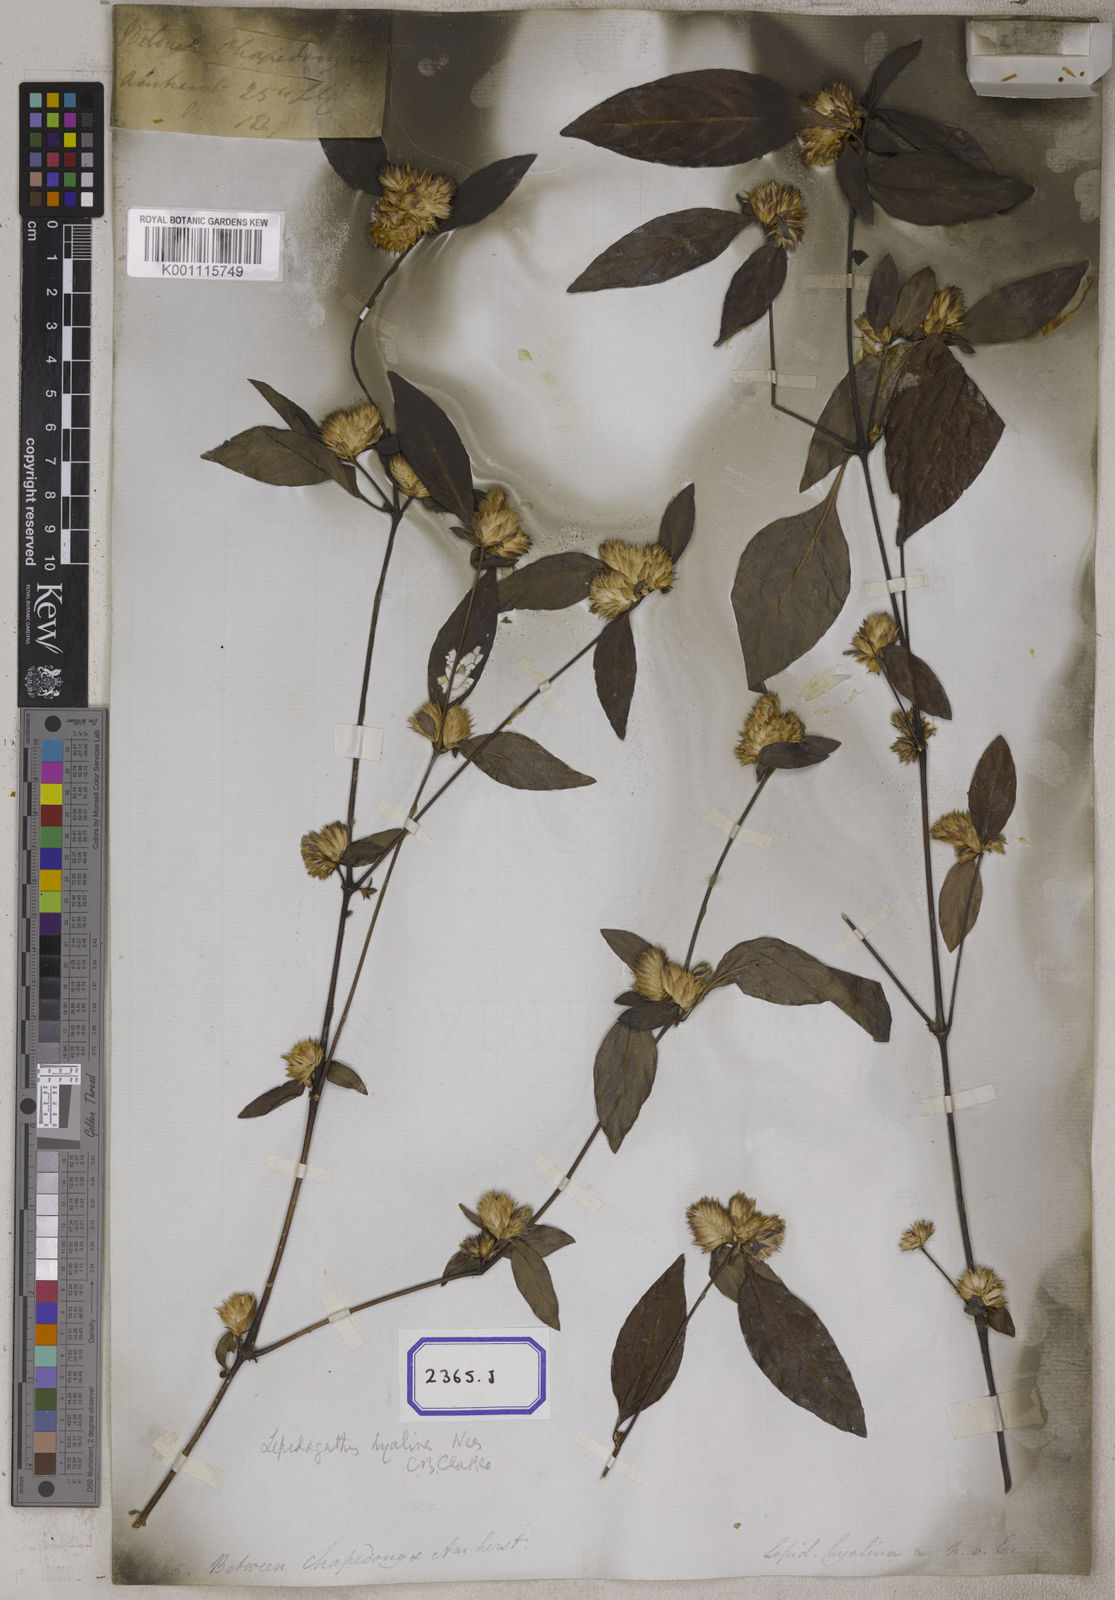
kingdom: Plantae
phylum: Tracheophyta
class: Magnoliopsida
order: Lamiales
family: Acanthaceae
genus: Lepidagathis
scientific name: Lepidagathis incurva
